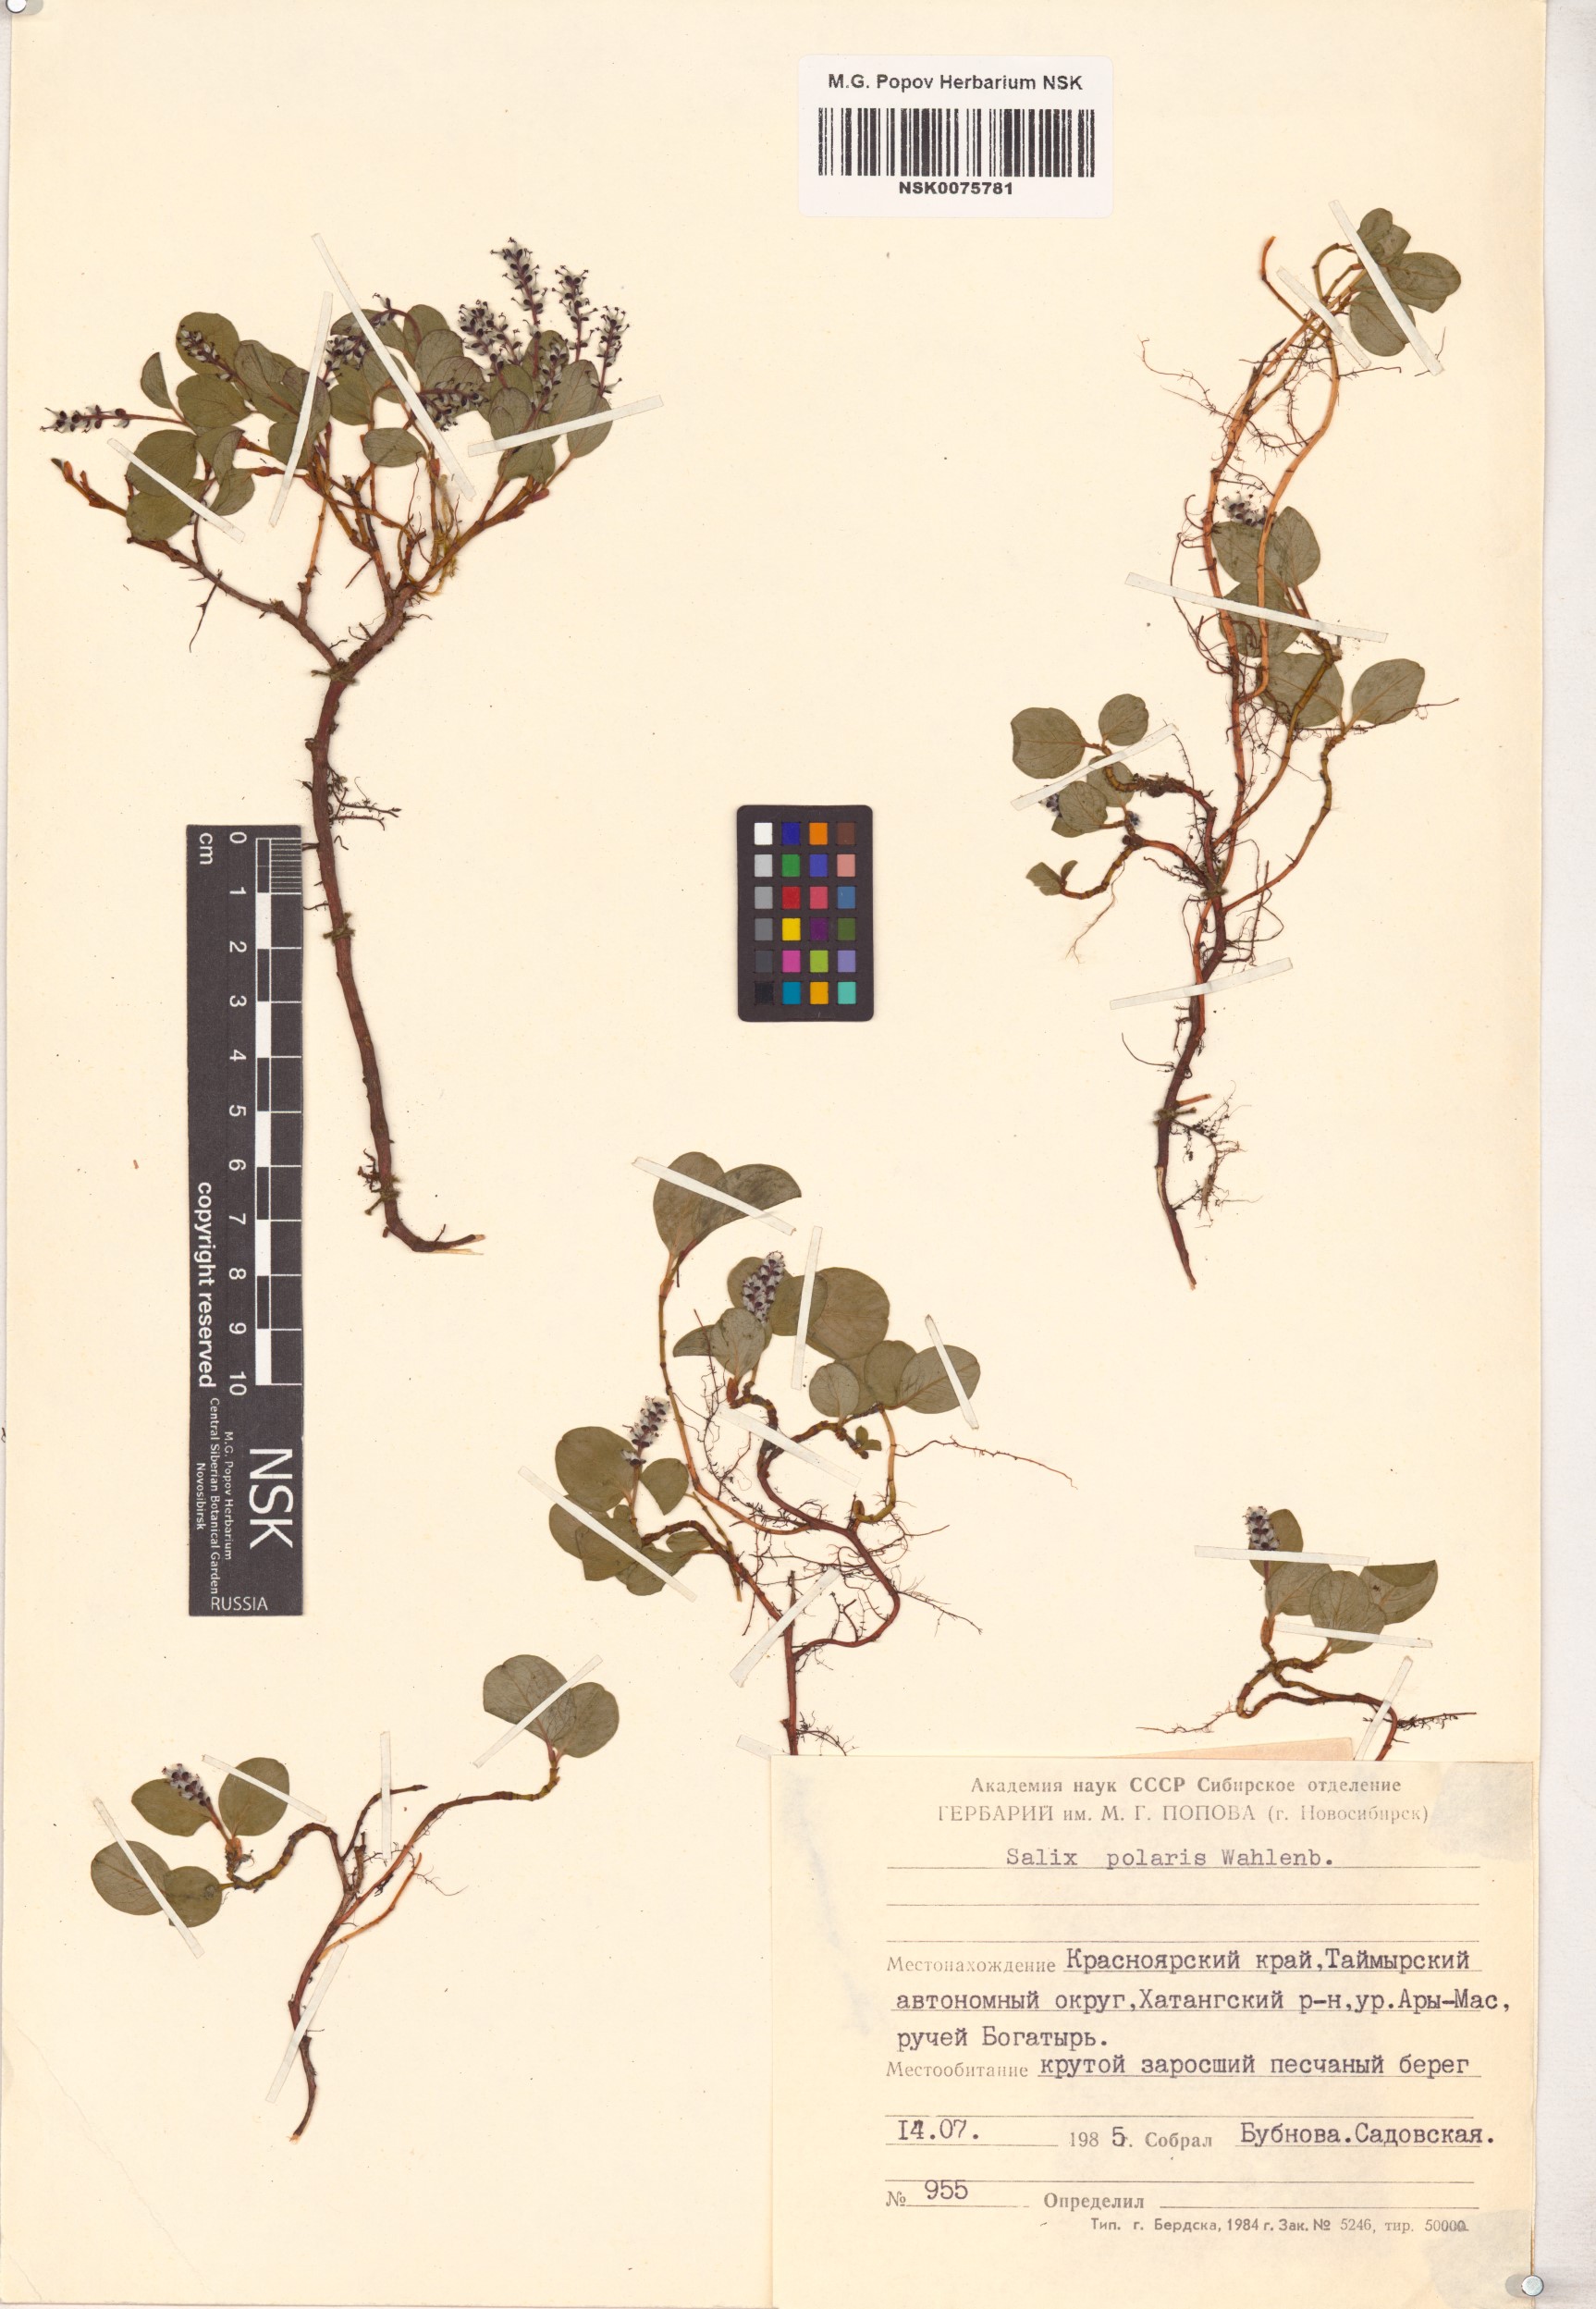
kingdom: Plantae
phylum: Tracheophyta
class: Magnoliopsida
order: Malpighiales
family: Salicaceae
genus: Salix
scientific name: Salix polaris
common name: Polar willow
